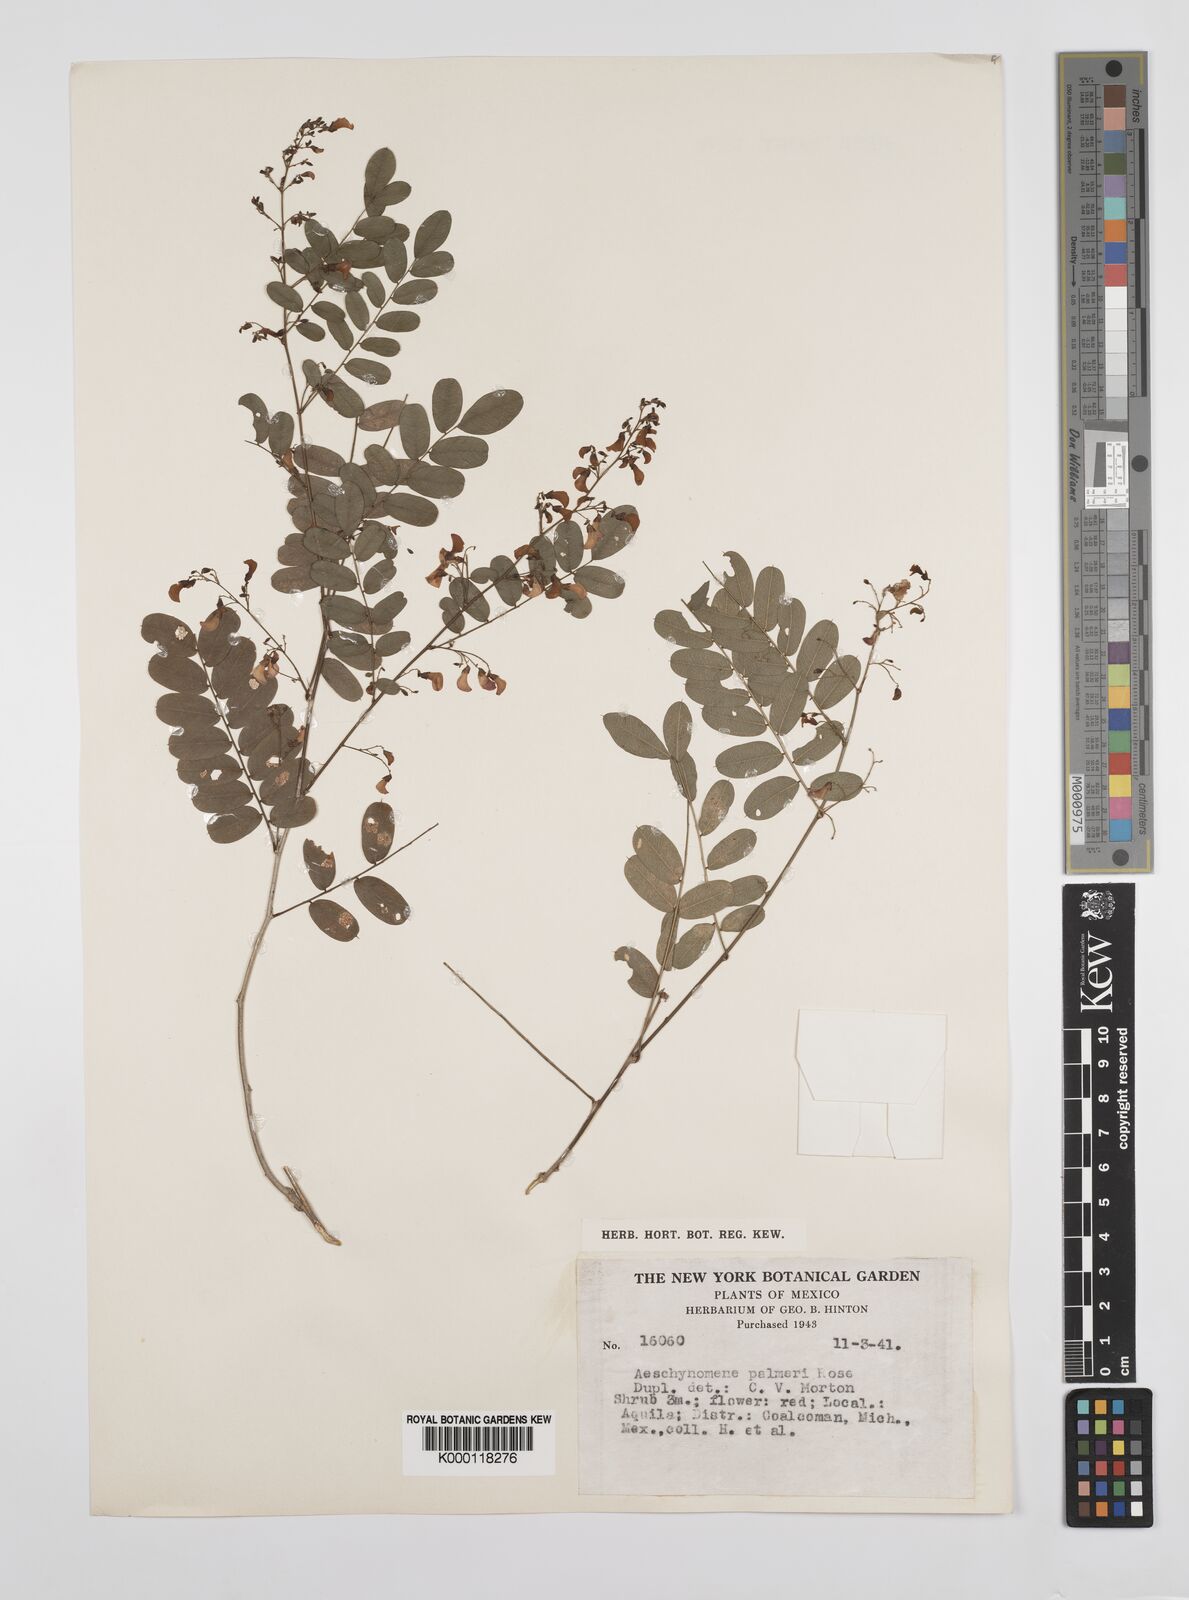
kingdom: Plantae
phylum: Tracheophyta
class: Magnoliopsida
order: Fabales
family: Fabaceae
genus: Ctenodon
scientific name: Ctenodon palmeri
